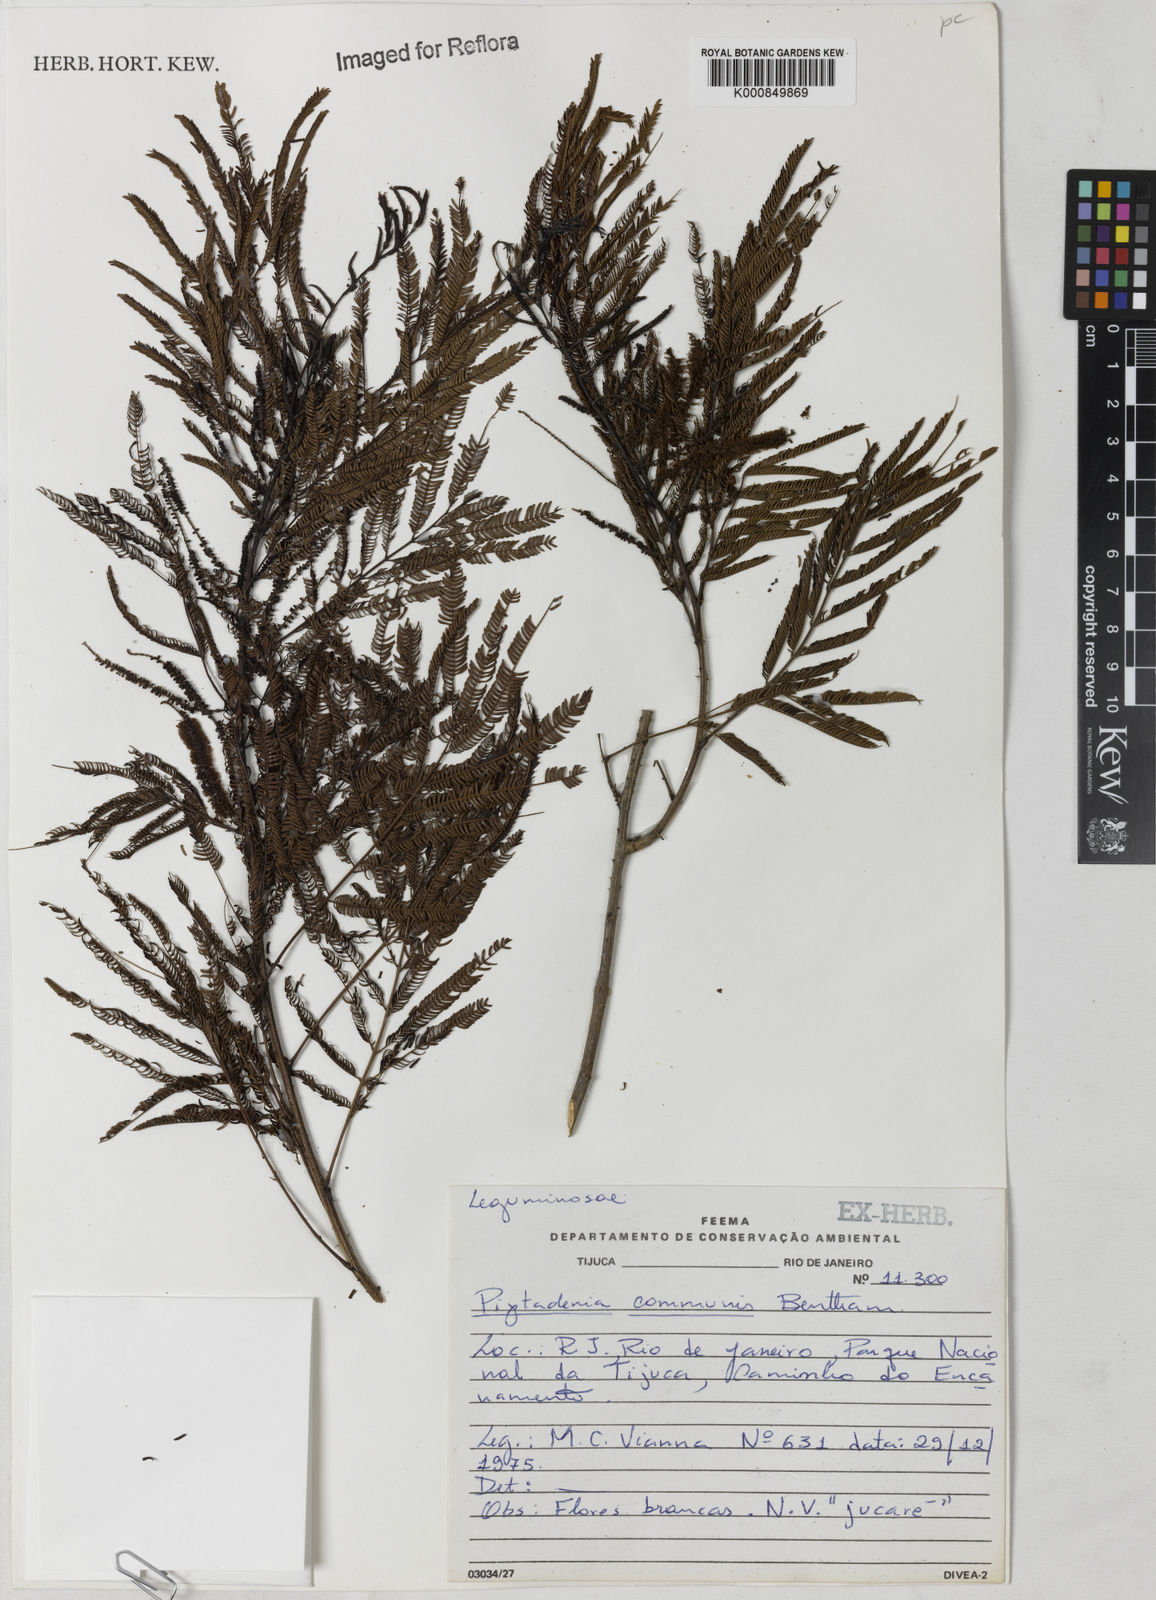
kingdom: Plantae
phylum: Tracheophyta
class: Magnoliopsida
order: Fabales
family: Fabaceae
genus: Piptadenia
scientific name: Piptadenia gonoacantha
